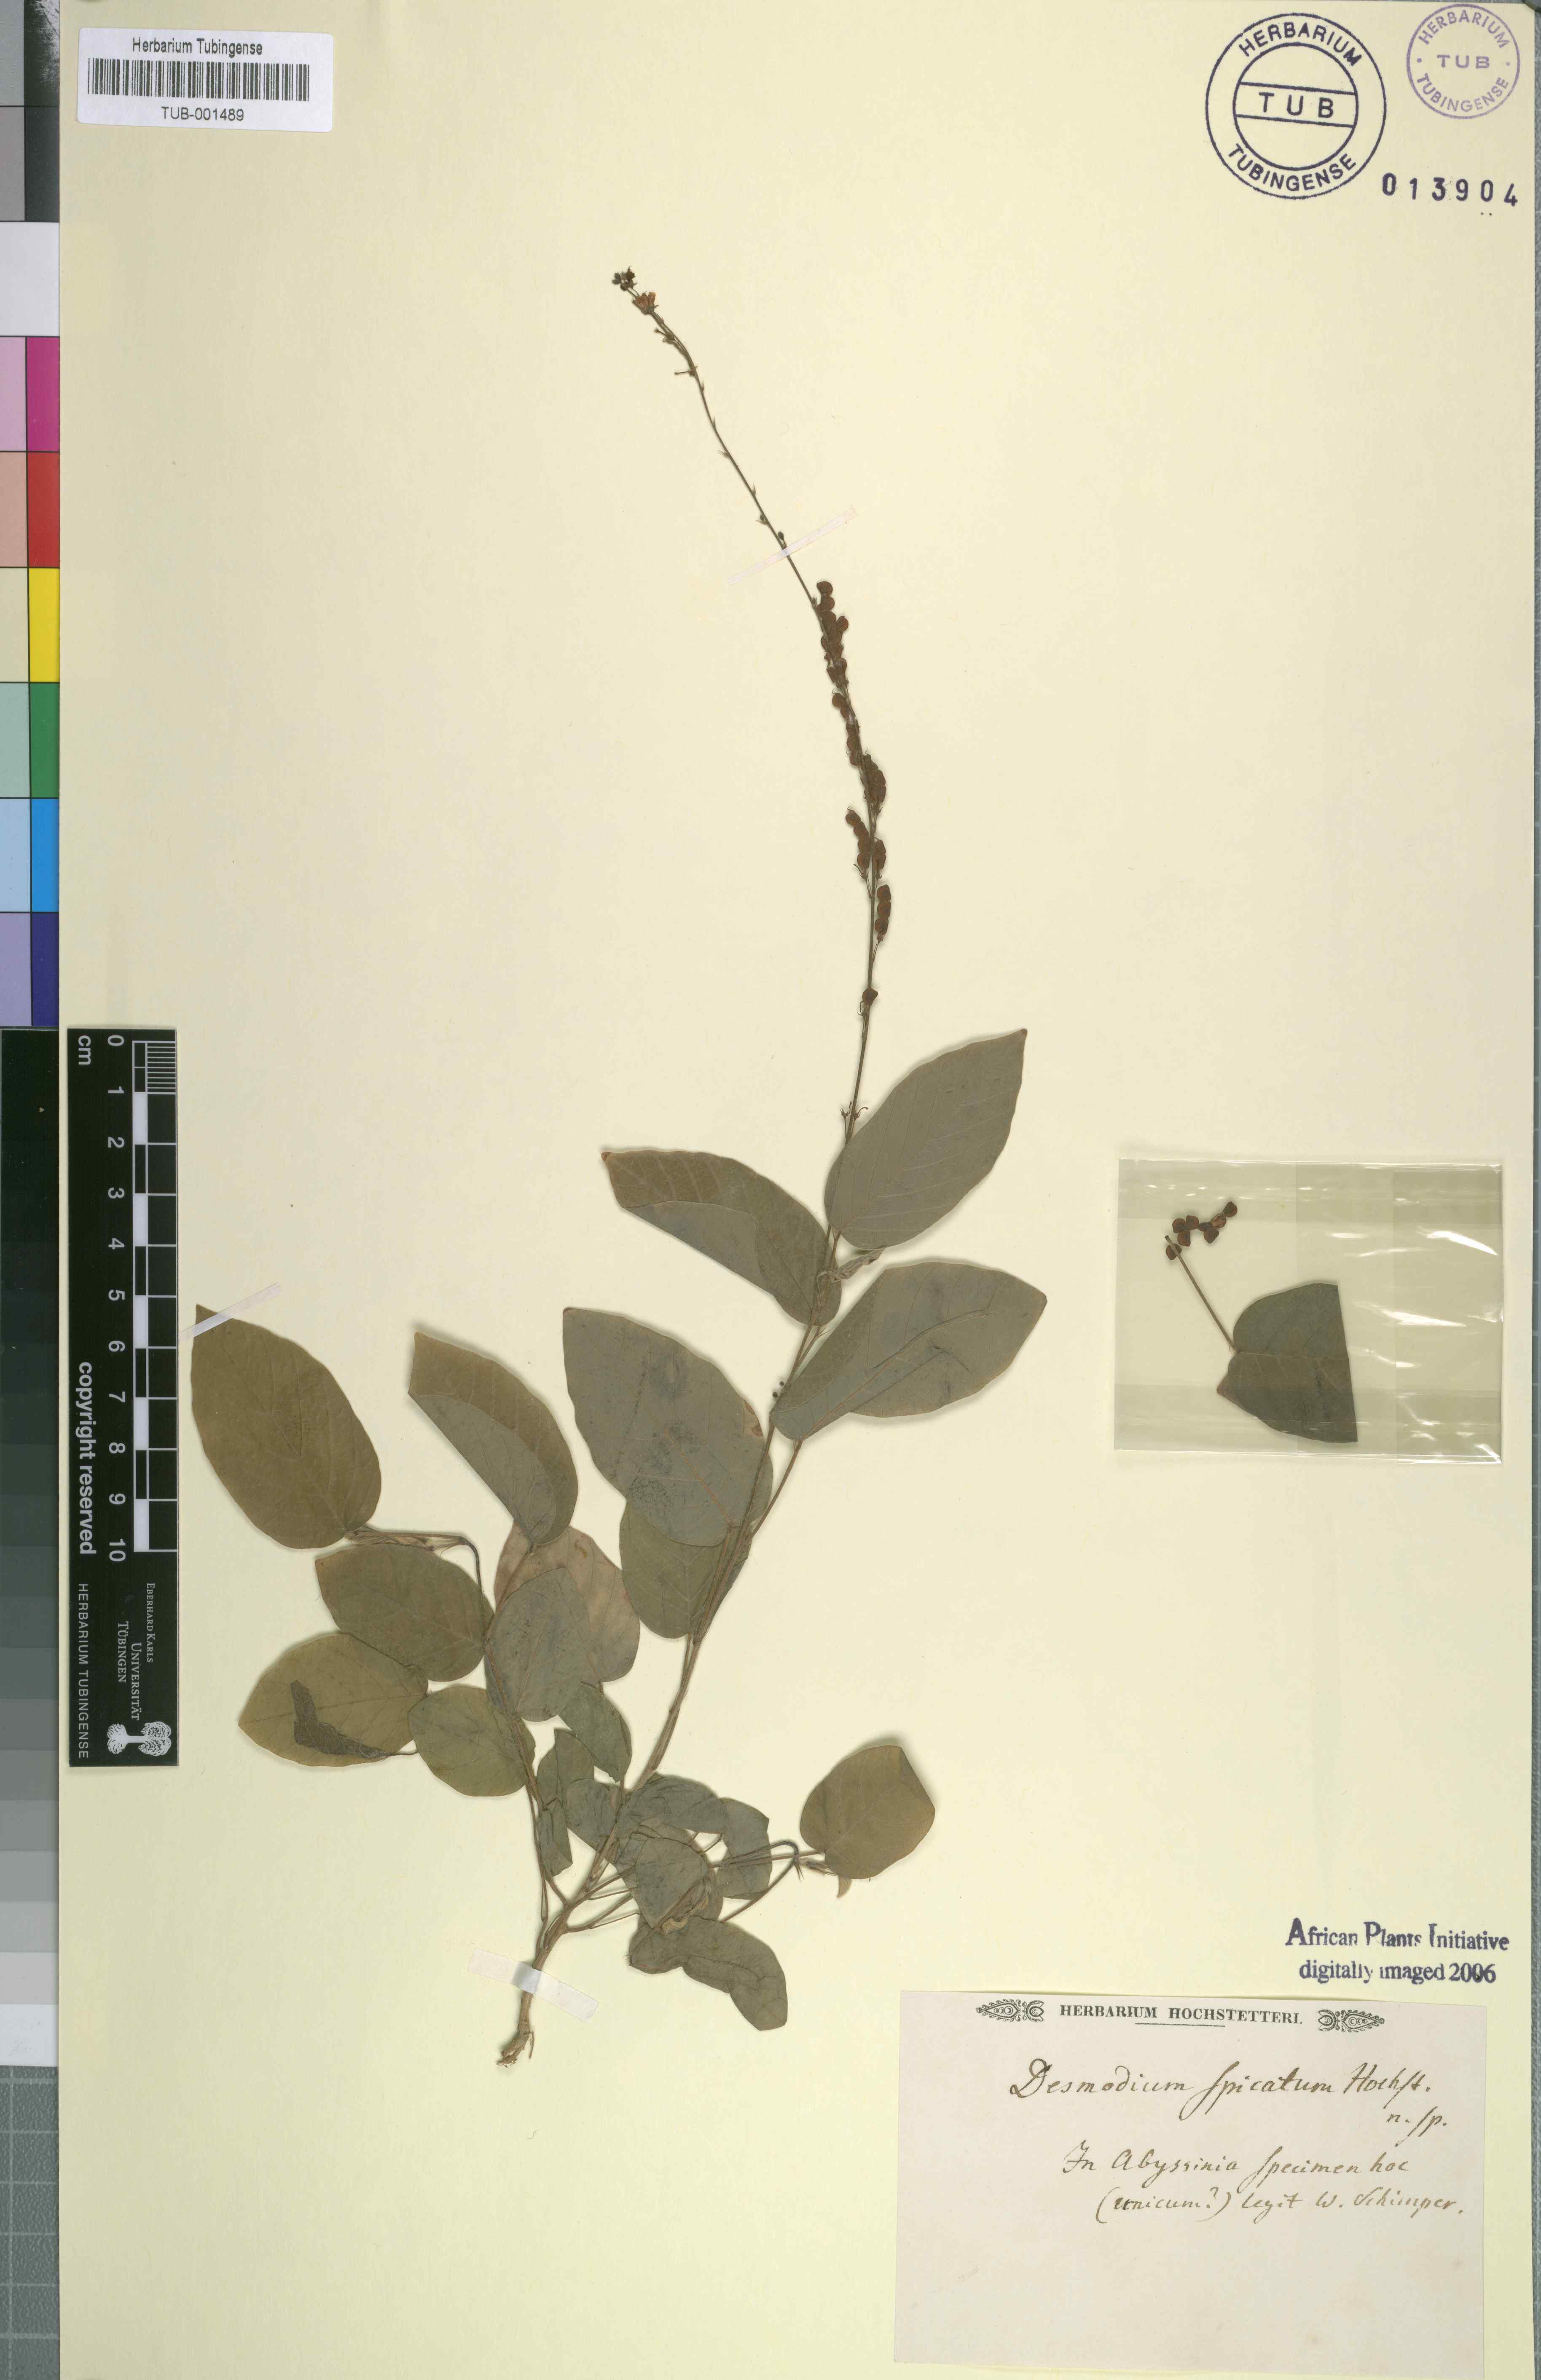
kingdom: Plantae
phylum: Tracheophyta
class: Magnoliopsida
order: Fabales
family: Fabaceae
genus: Sunhangia
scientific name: Sunhangia elegans
